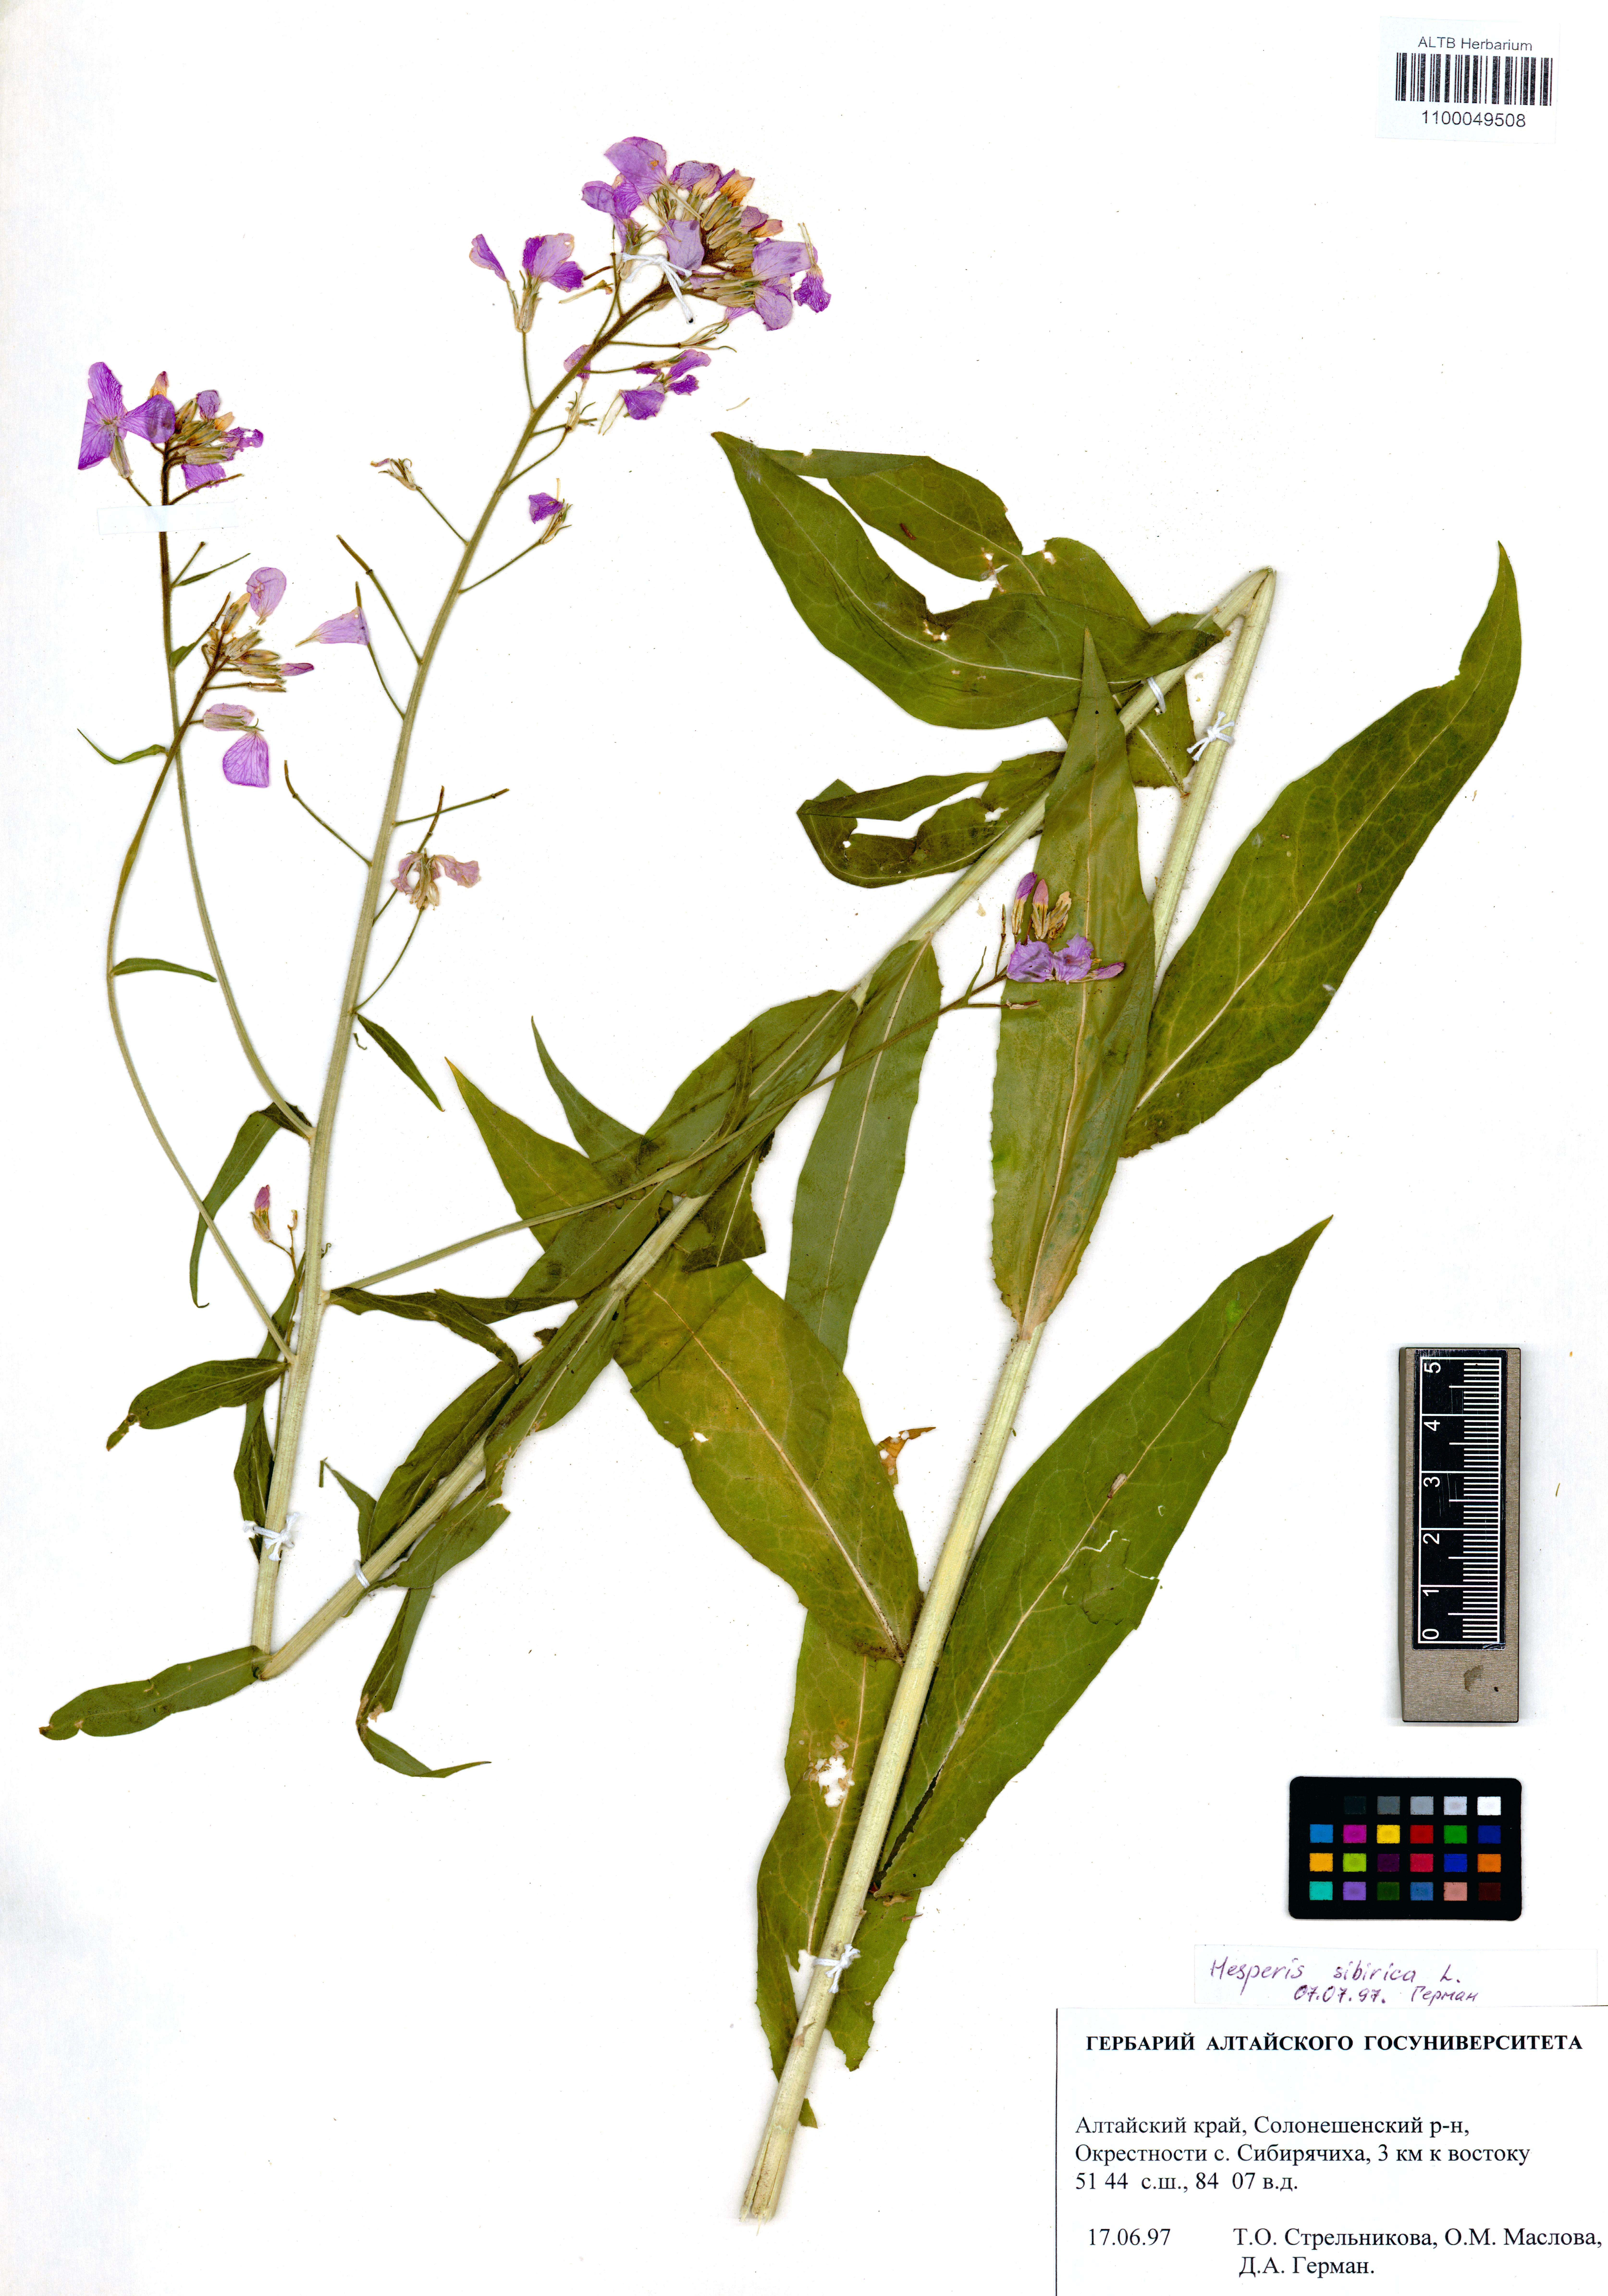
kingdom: Plantae
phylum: Tracheophyta
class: Magnoliopsida
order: Brassicales
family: Brassicaceae
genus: Hesperis
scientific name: Hesperis sibirica
